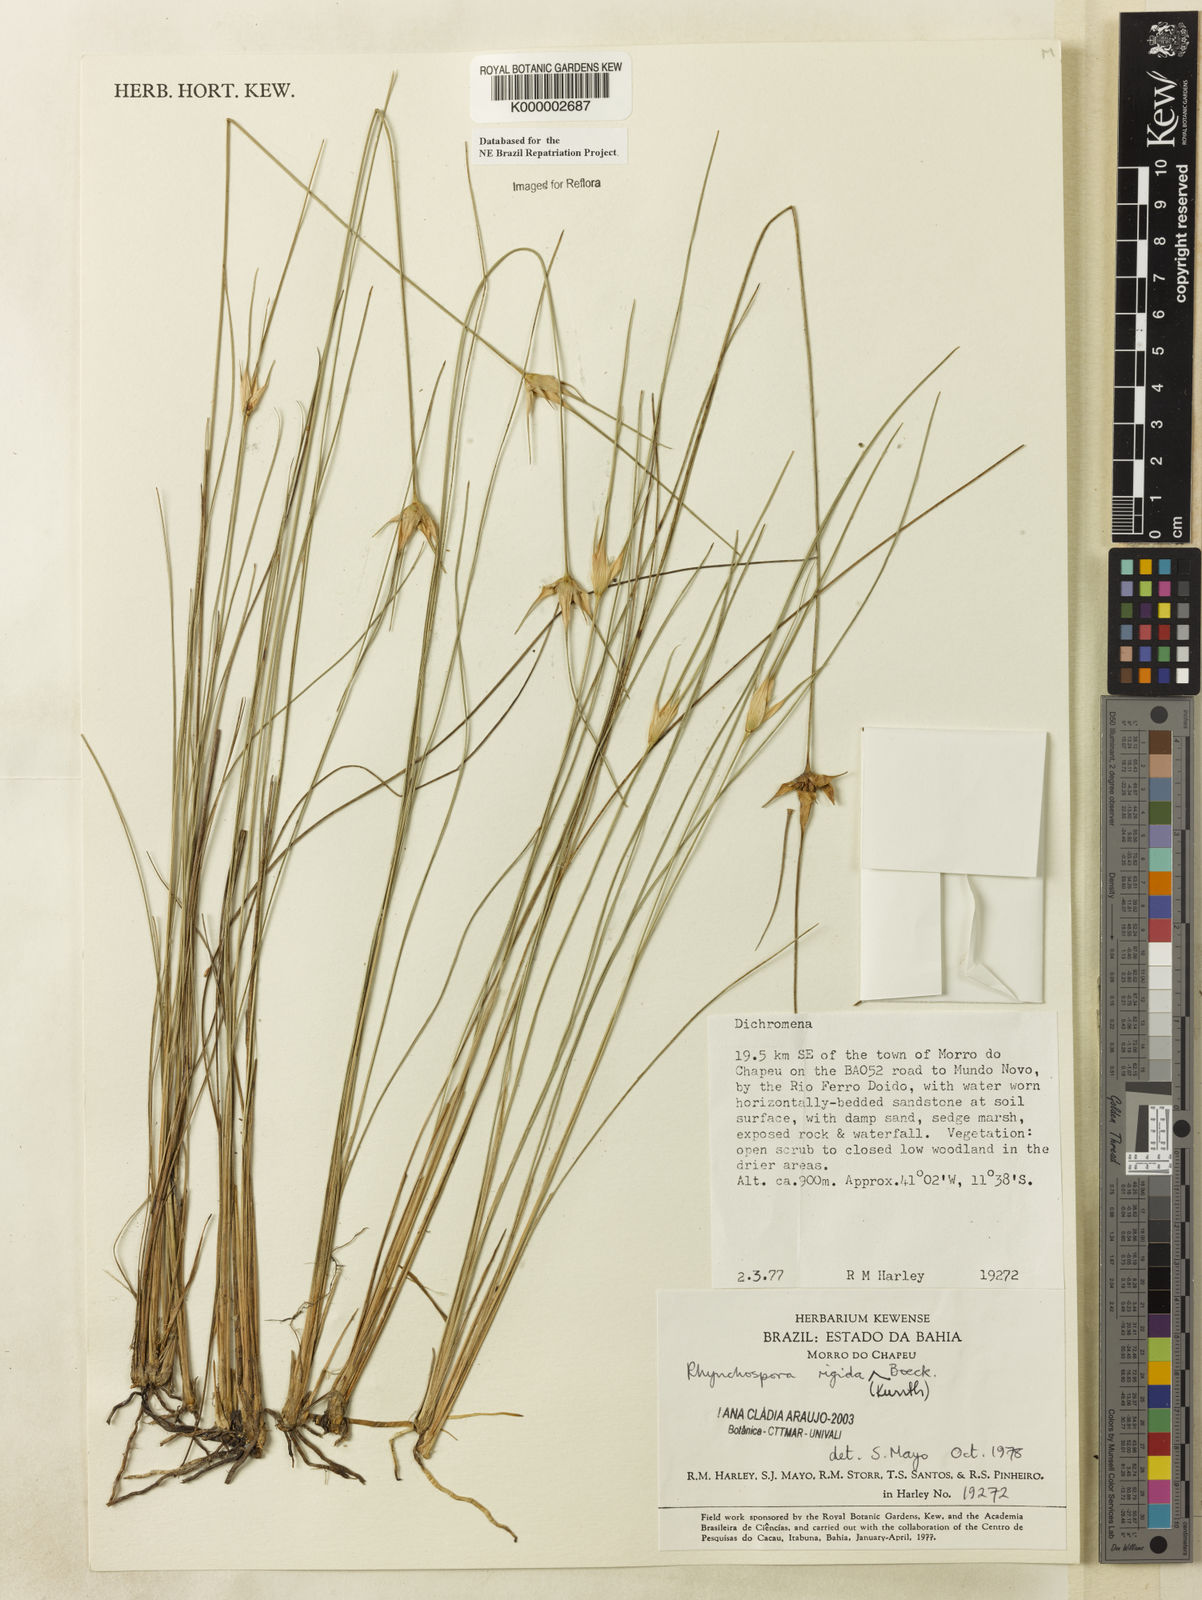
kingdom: Plantae
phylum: Tracheophyta
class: Liliopsida
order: Poales
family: Cyperaceae
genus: Rhynchospora
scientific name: Rhynchospora consanguinea
